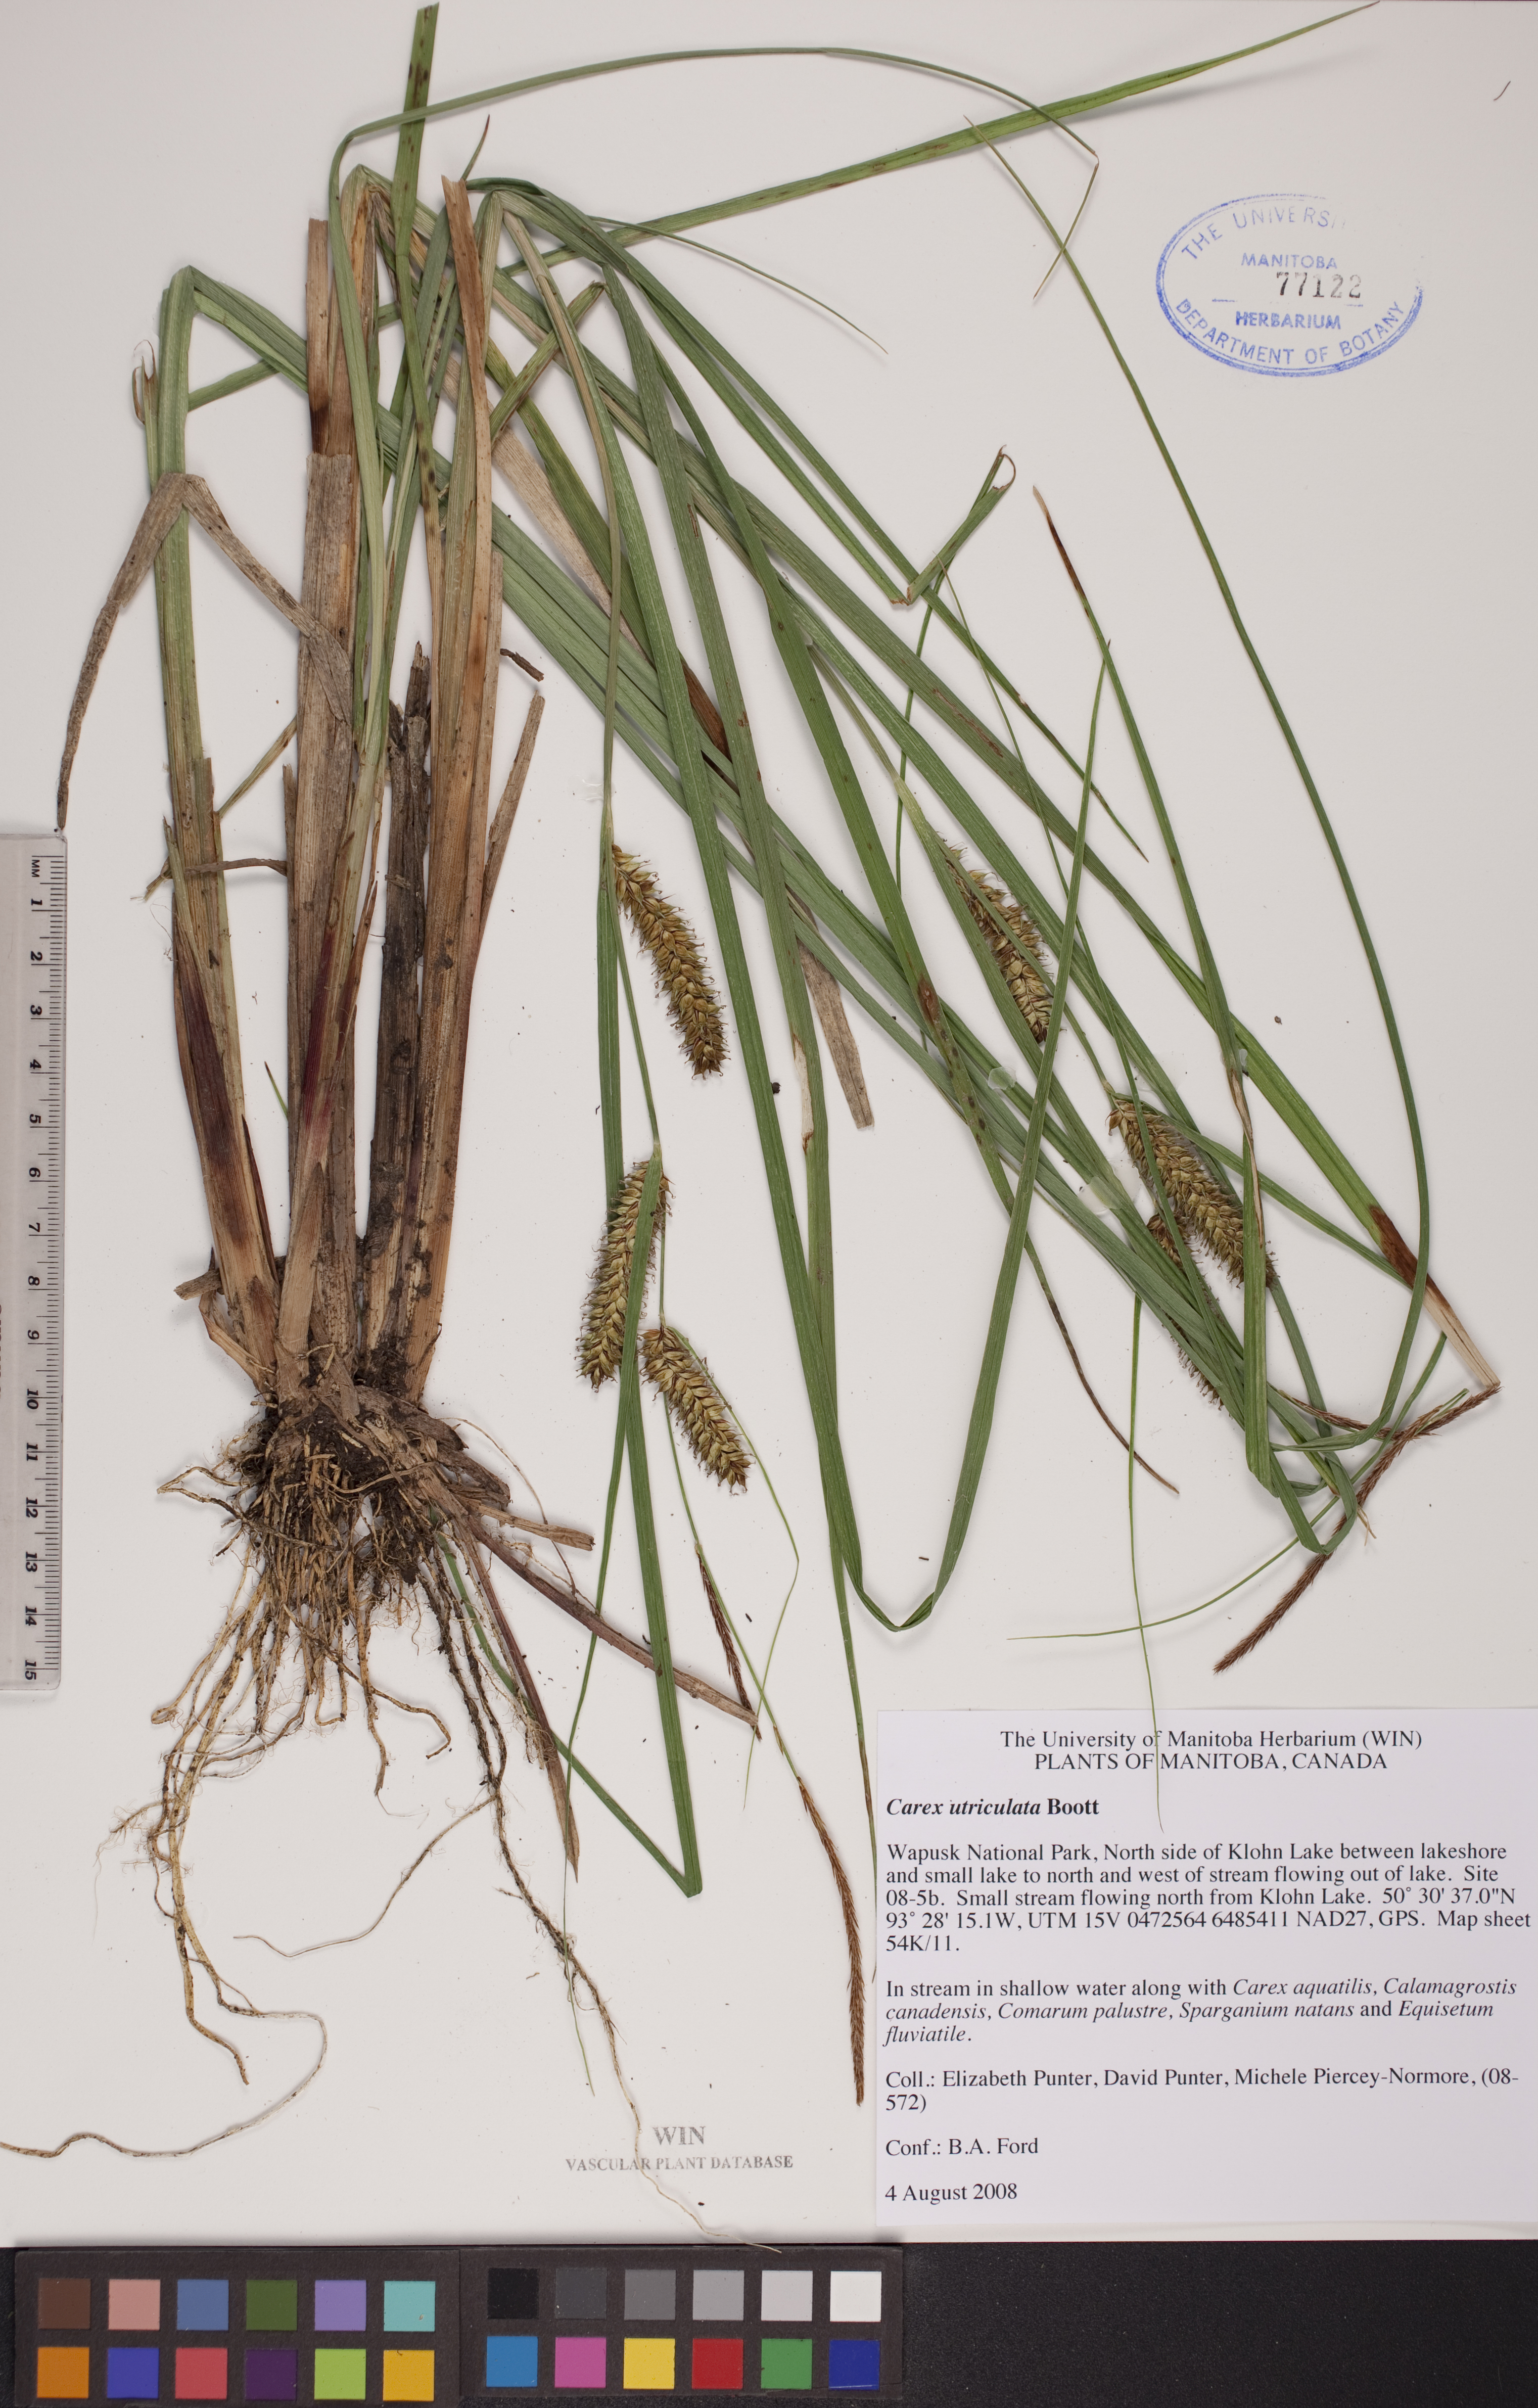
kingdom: Plantae
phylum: Tracheophyta
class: Liliopsida
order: Poales
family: Cyperaceae
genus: Carex
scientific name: Carex utriculata
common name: Beaked sedge
